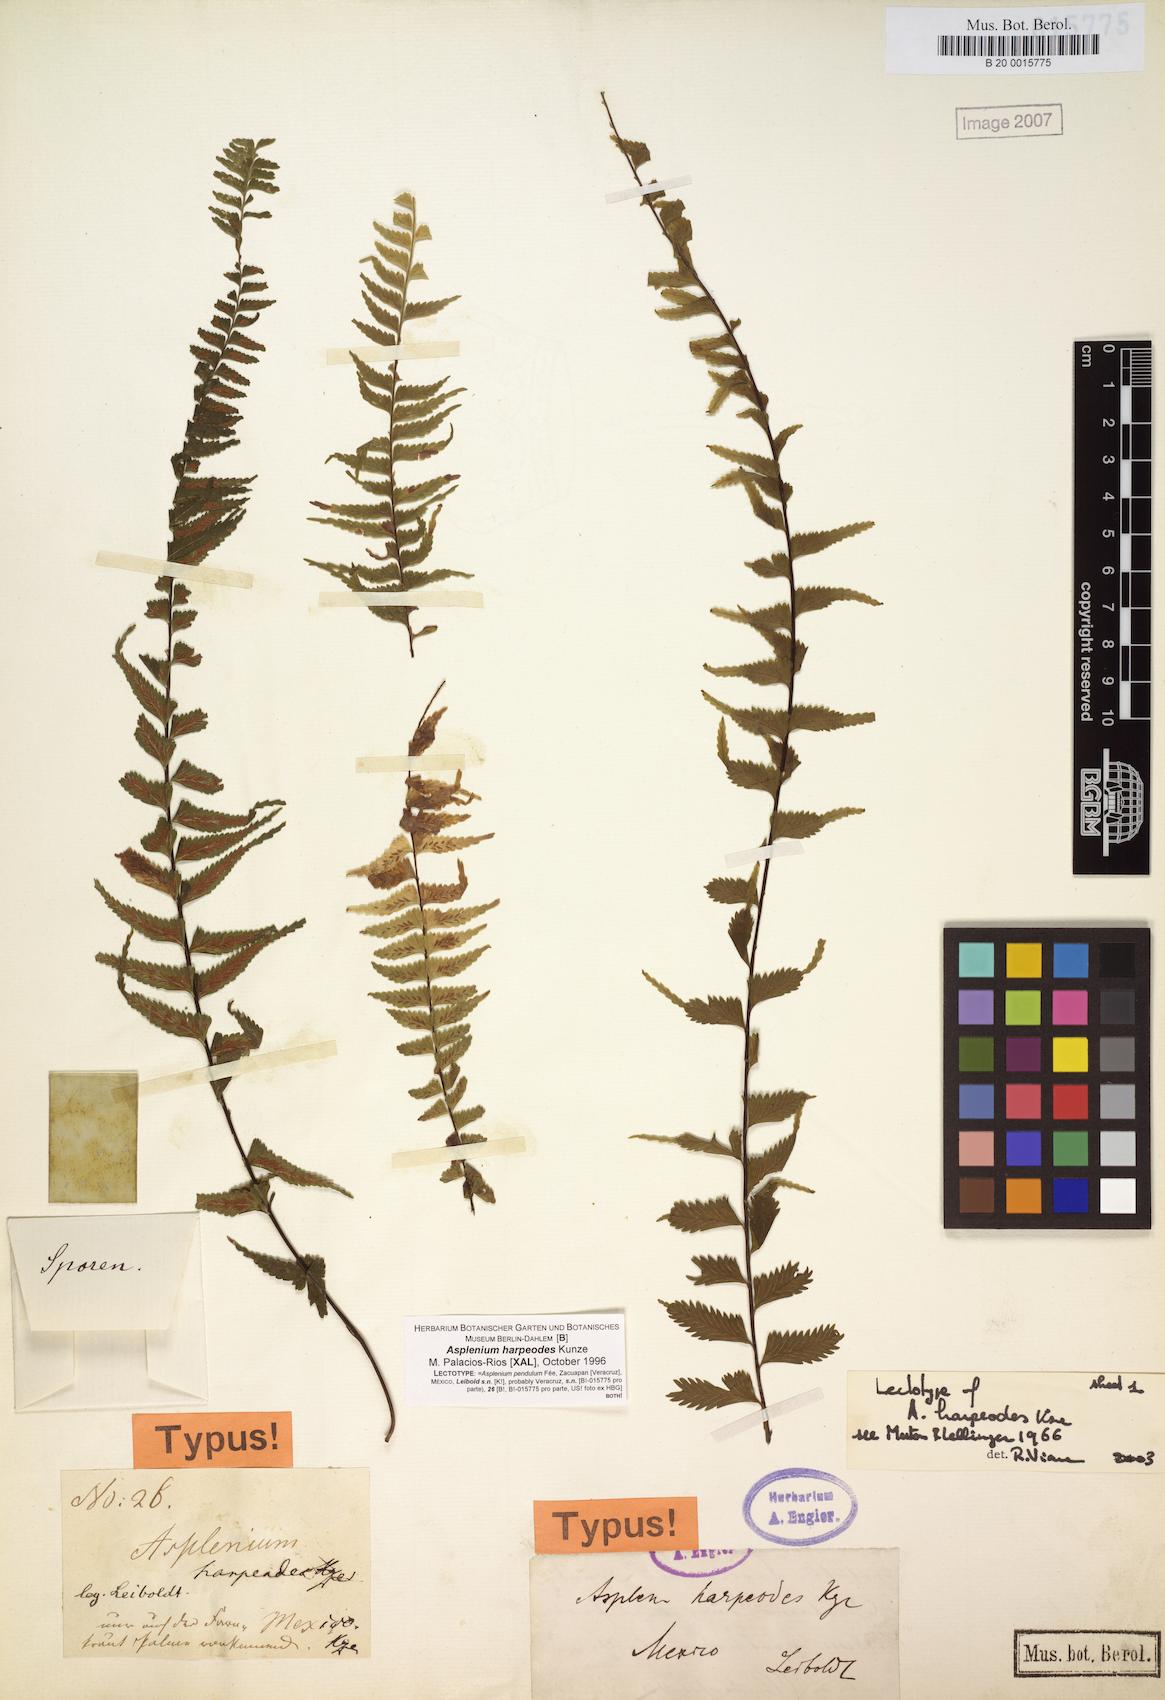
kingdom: Plantae
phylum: Tracheophyta
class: Polypodiopsida
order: Polypodiales
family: Aspleniaceae
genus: Asplenium
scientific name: Asplenium harpeodes
